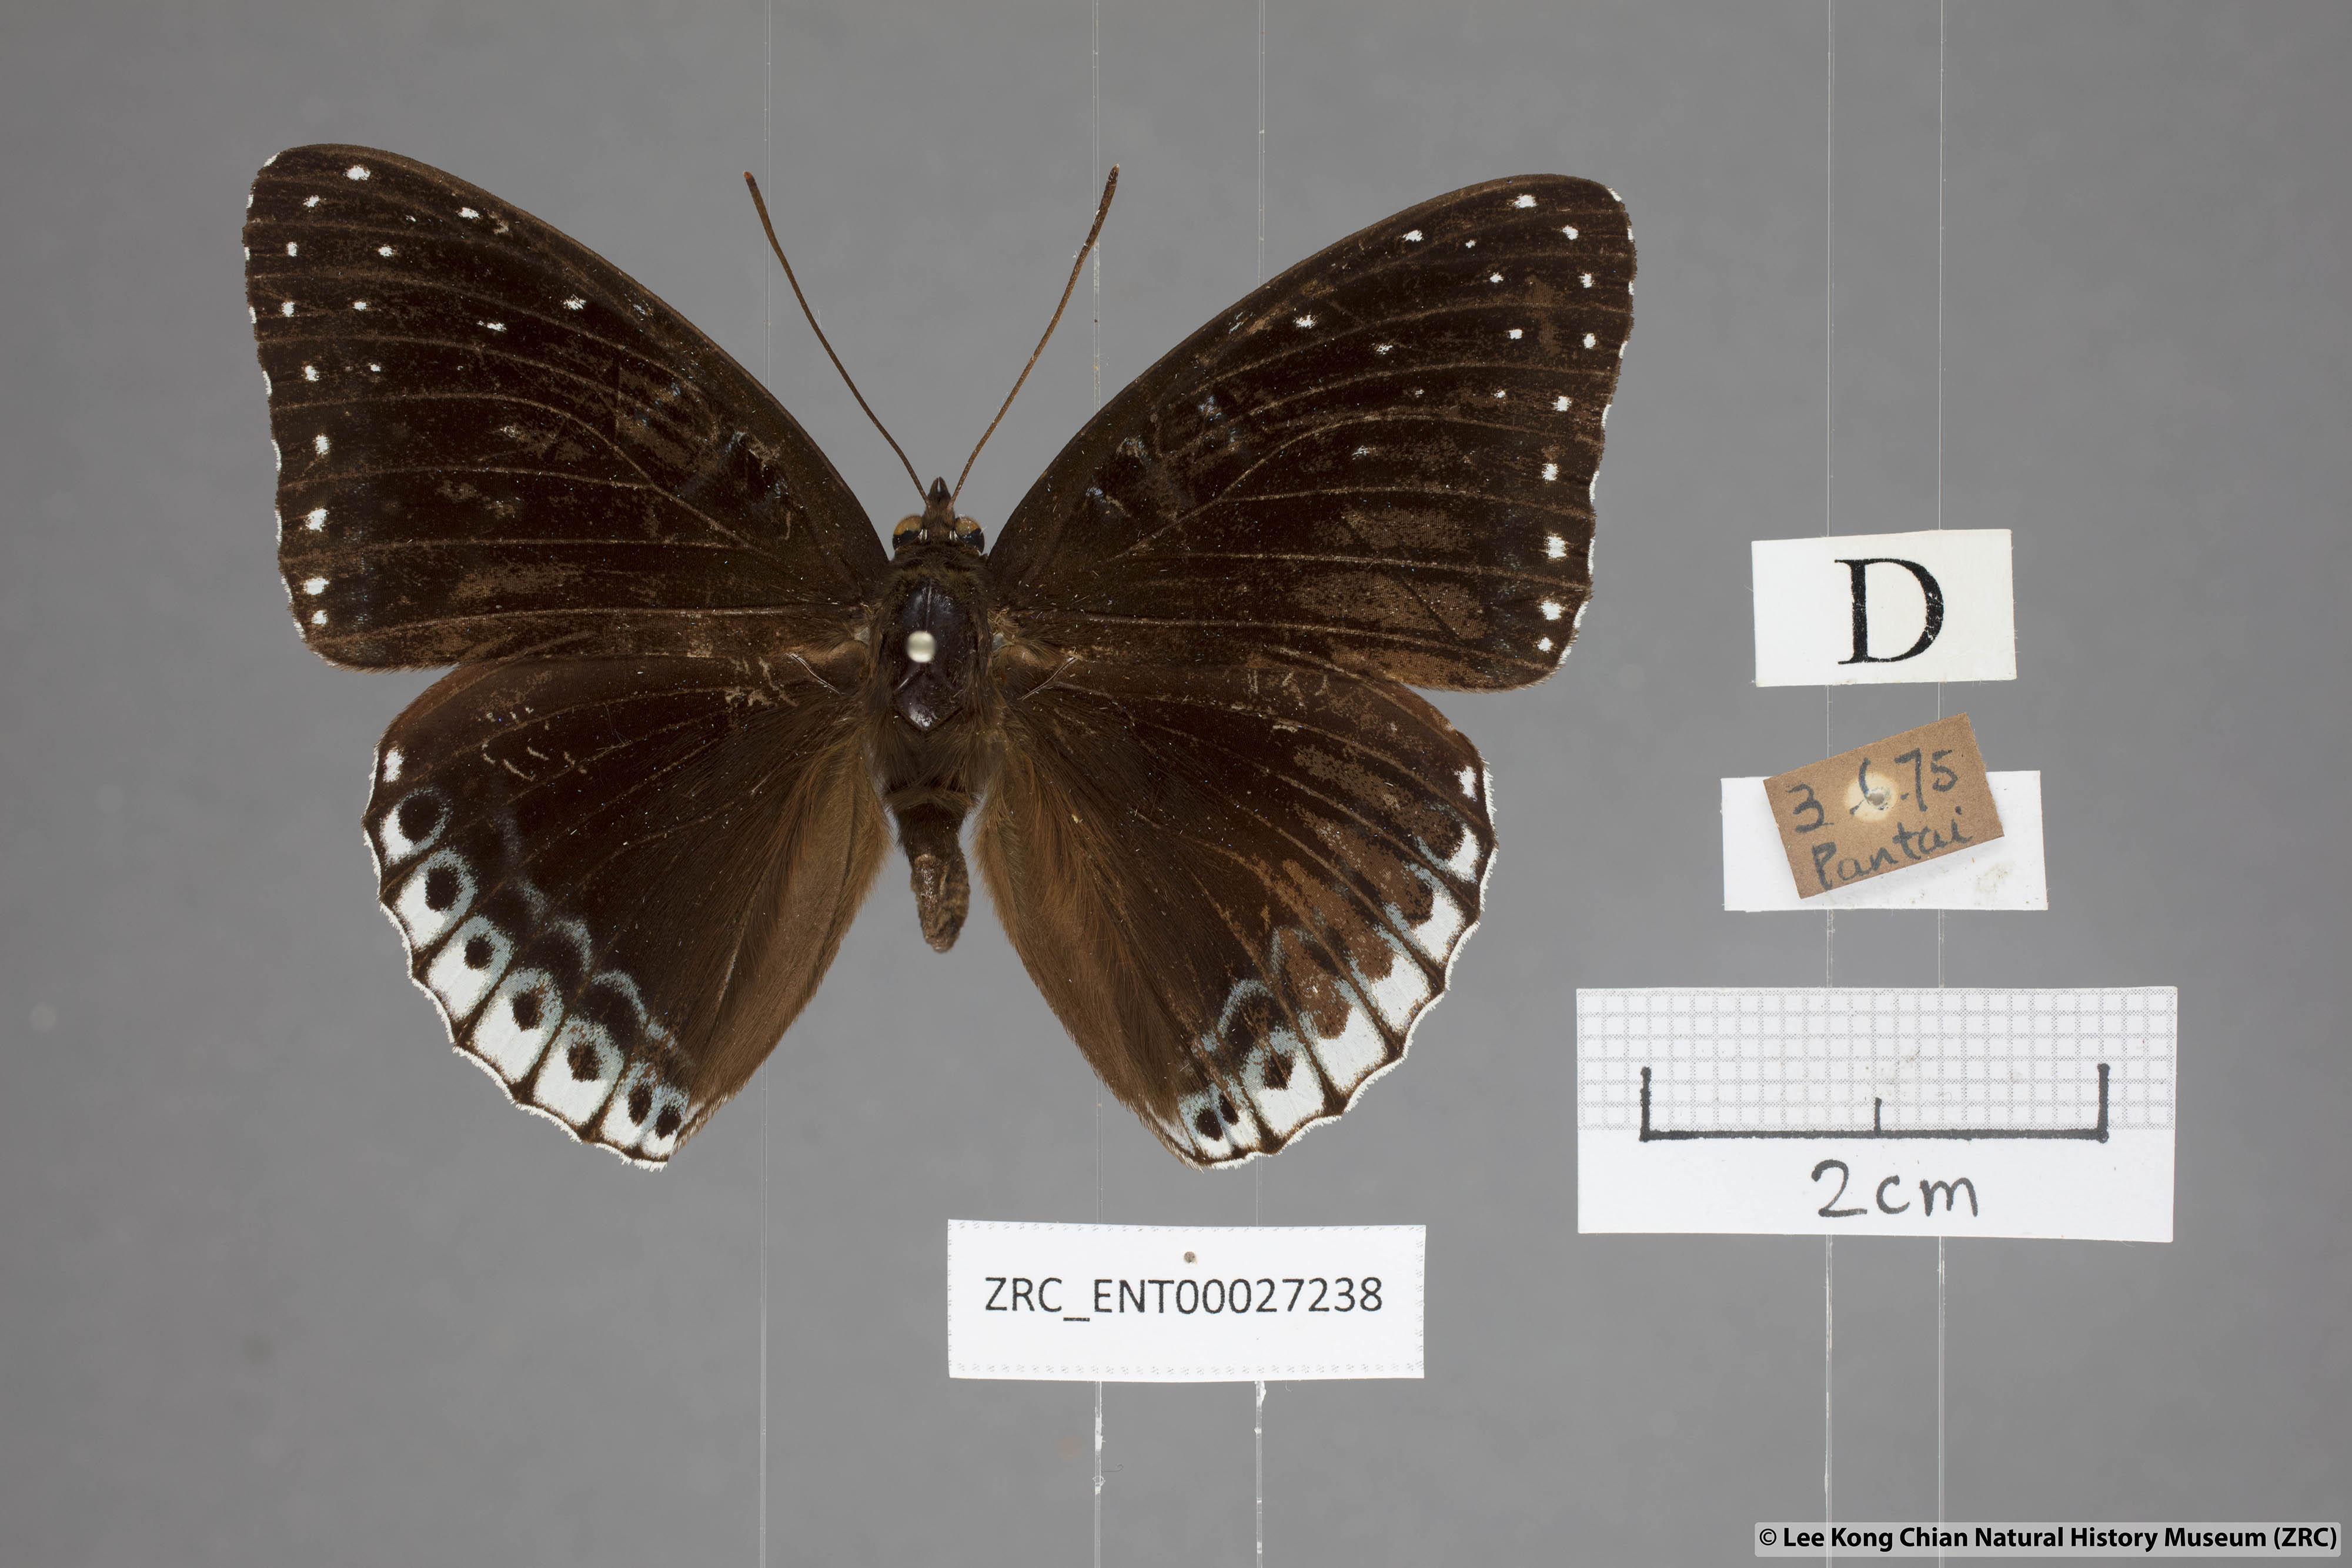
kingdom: Animalia
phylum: Arthropoda
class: Insecta
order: Lepidoptera
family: Nymphalidae
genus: Stibochiona
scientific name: Stibochiona nicea
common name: Popinjay
